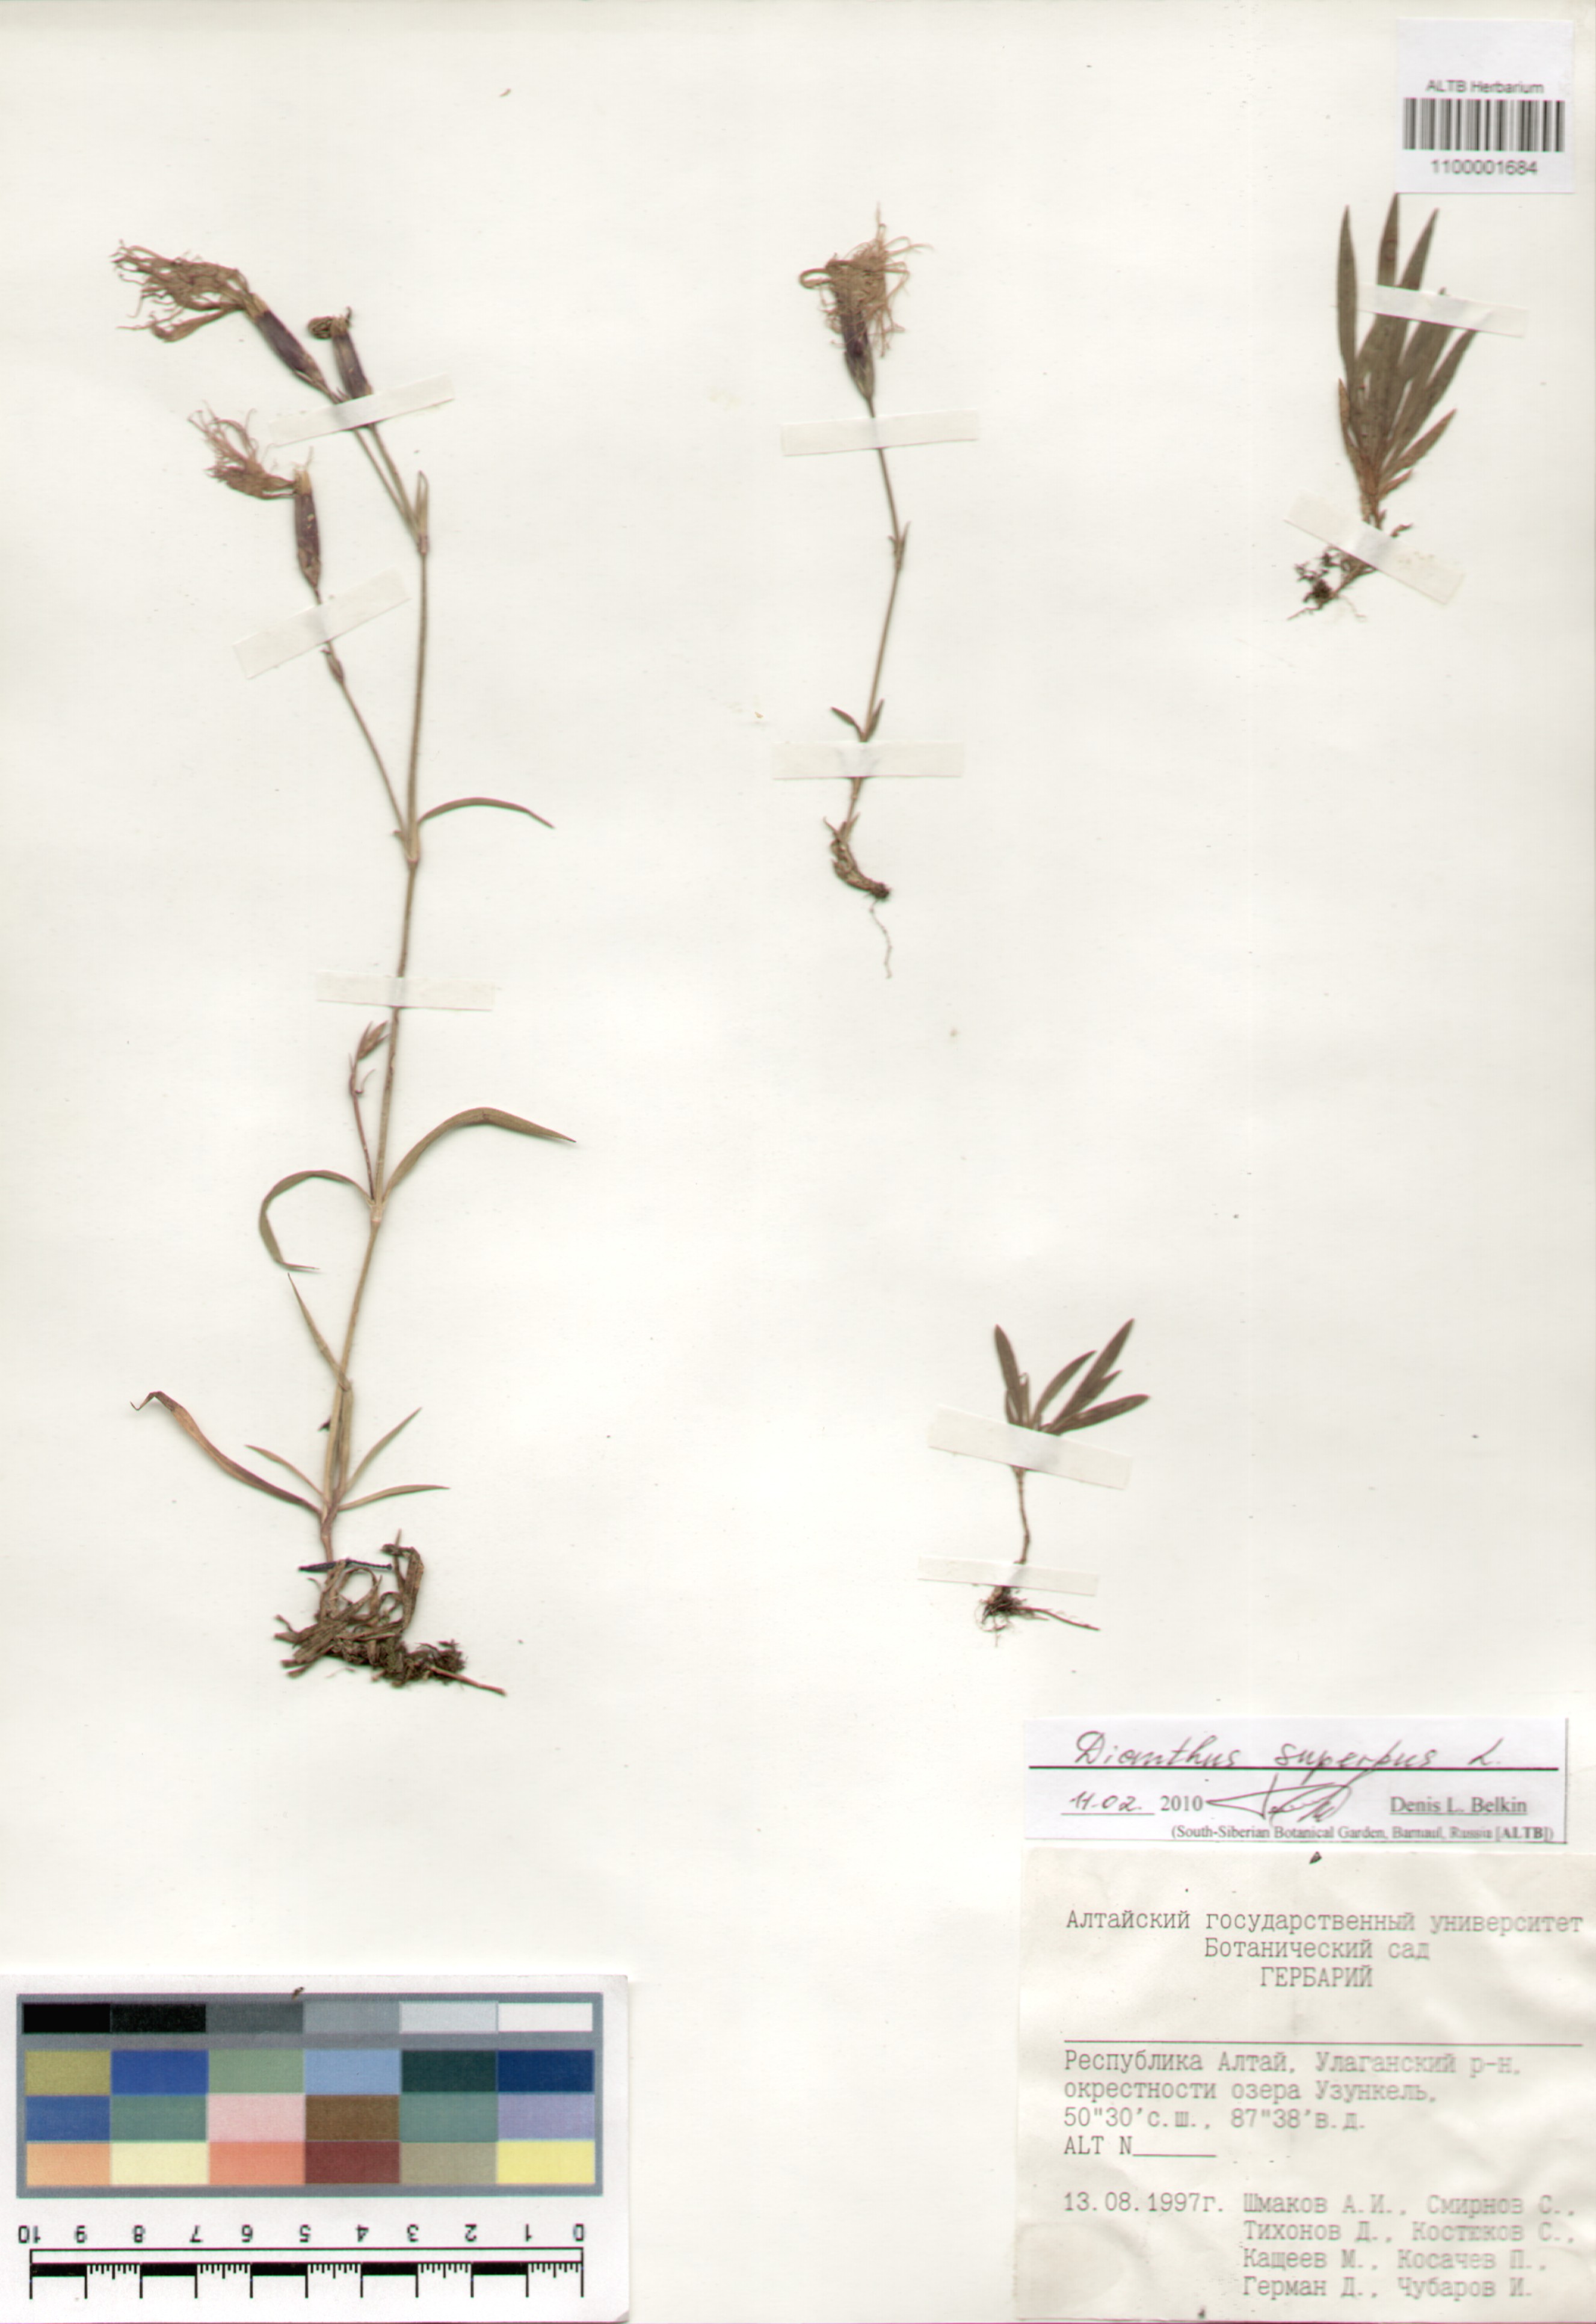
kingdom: Plantae
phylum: Tracheophyta
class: Magnoliopsida
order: Caryophyllales
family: Caryophyllaceae
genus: Dianthus
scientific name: Dianthus superbus
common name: Fringed pink
